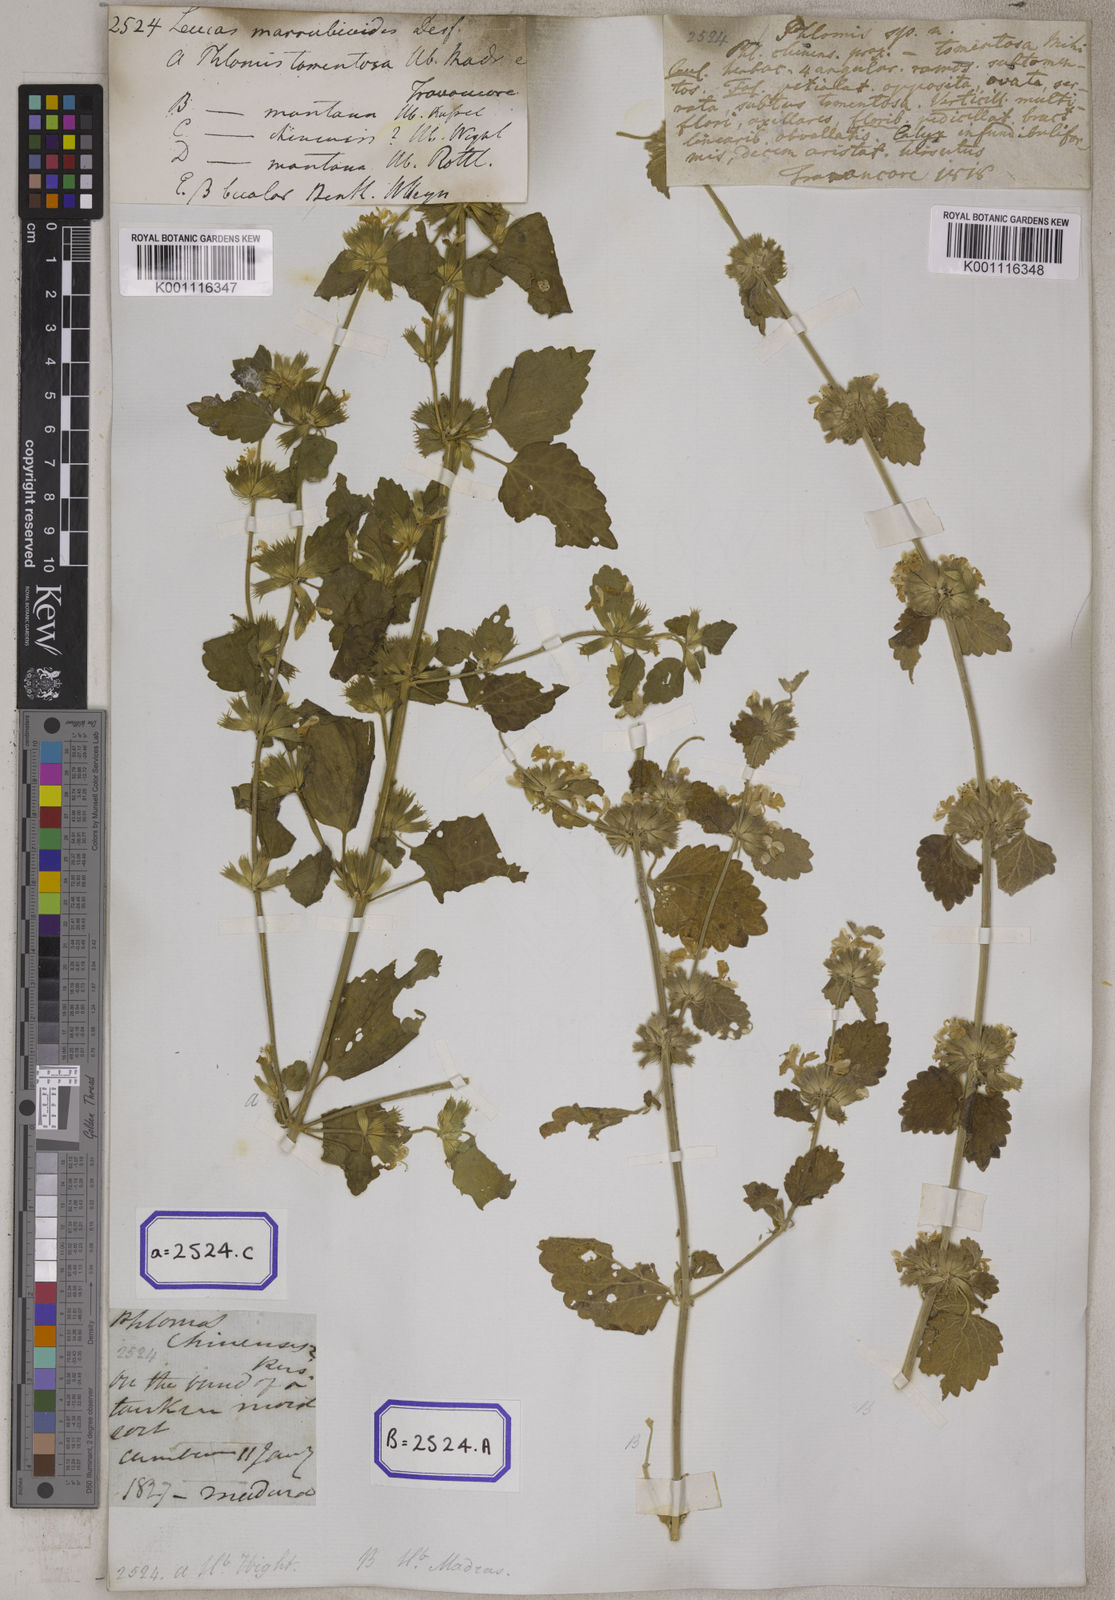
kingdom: Plantae
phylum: Tracheophyta
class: Magnoliopsida
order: Lamiales
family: Lamiaceae
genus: Leucas
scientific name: Leucas marrubioides
